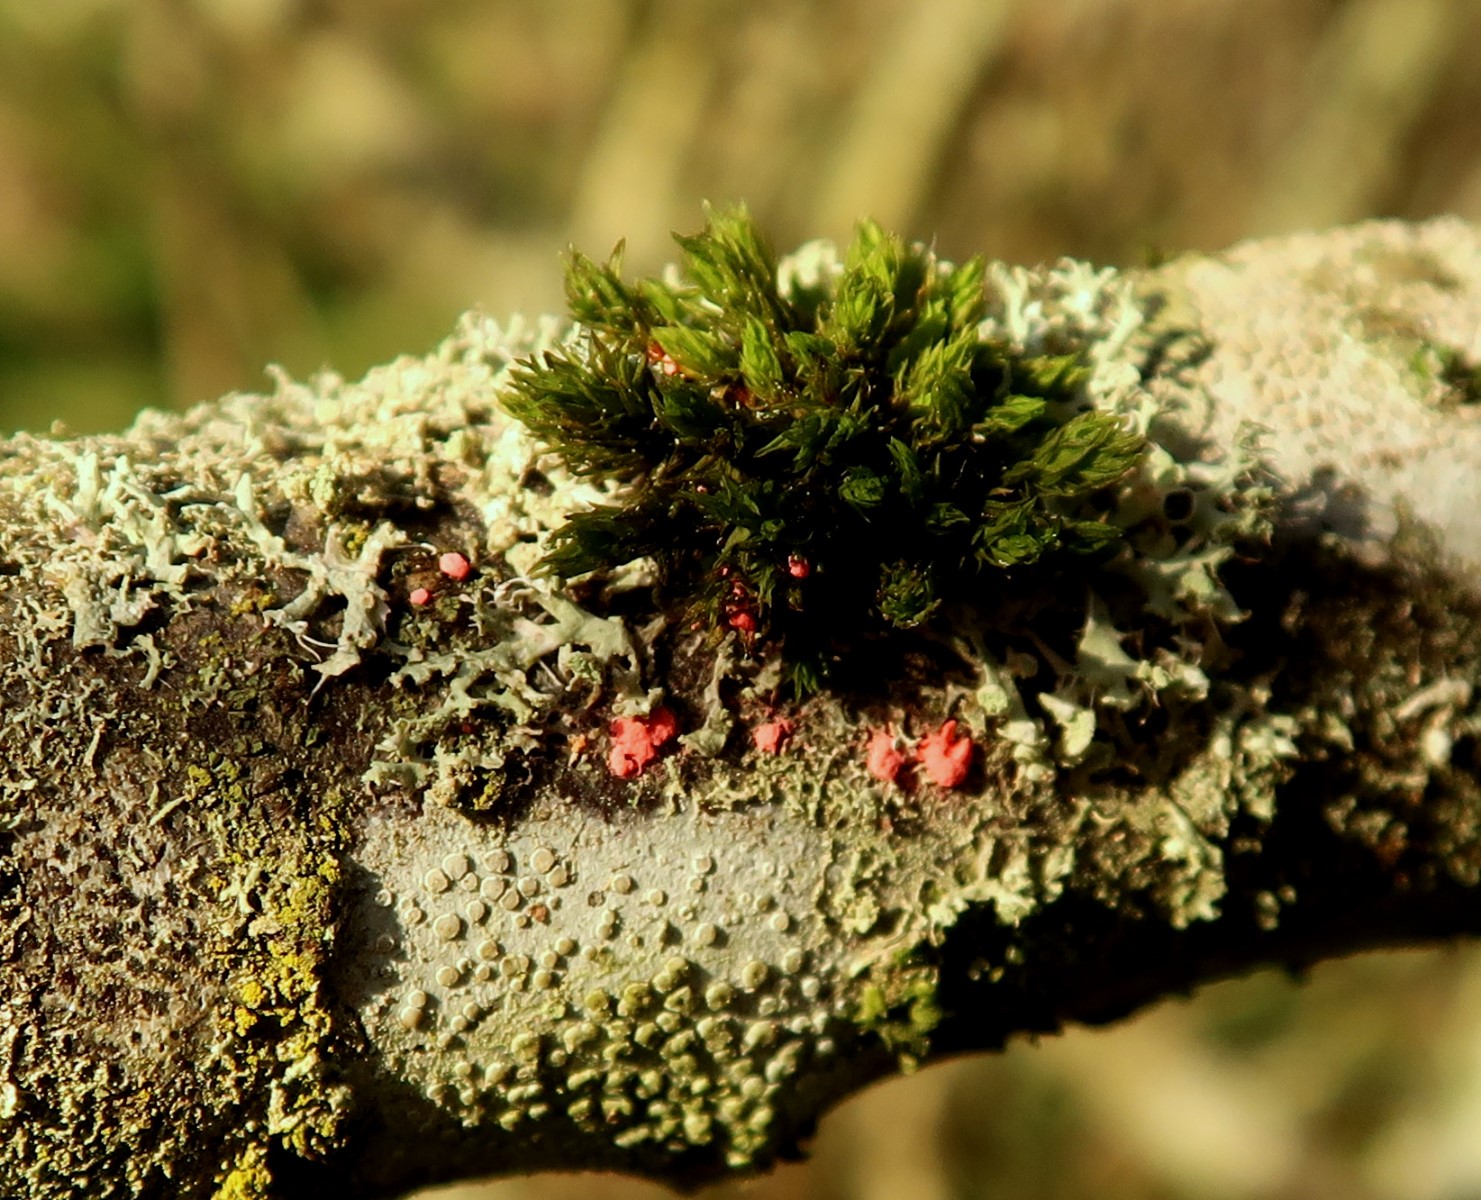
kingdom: Fungi
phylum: Ascomycota
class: Sordariomycetes
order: Hypocreales
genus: Illosporiopsis
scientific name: Illosporiopsis christiansenii
